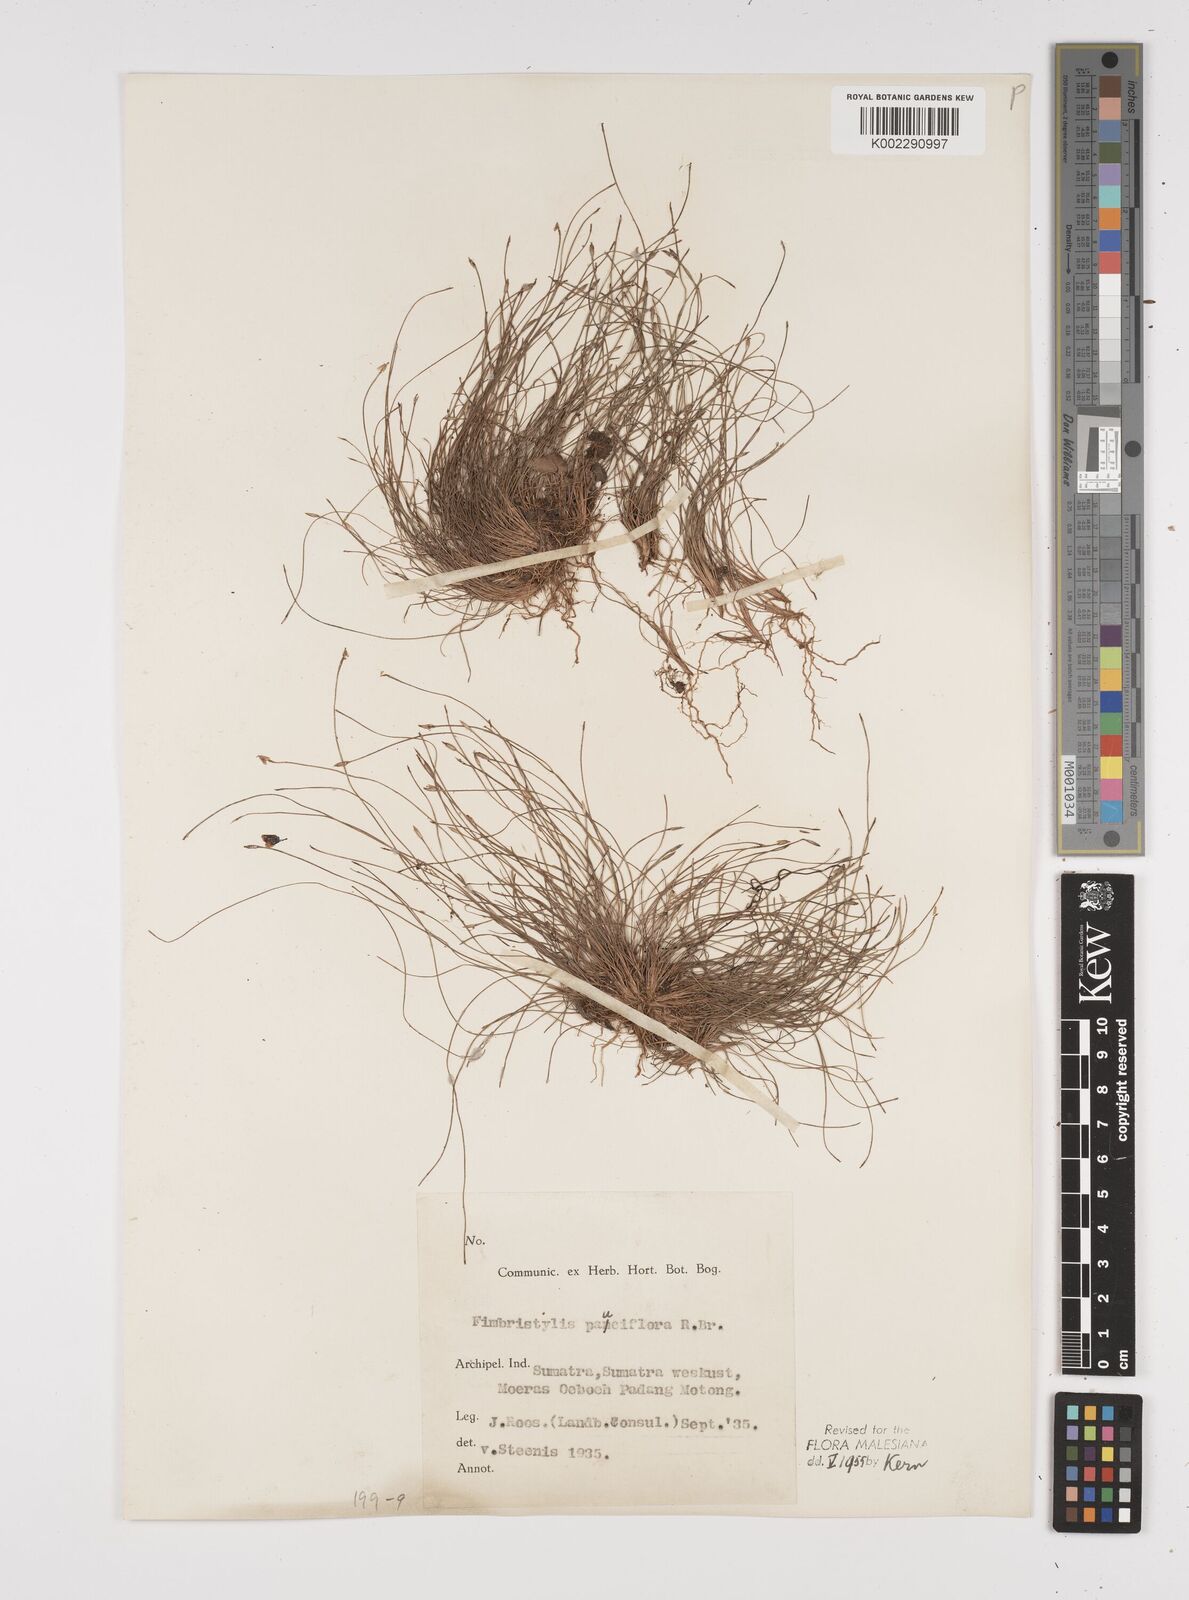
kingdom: Plantae
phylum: Tracheophyta
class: Liliopsida
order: Poales
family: Cyperaceae
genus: Fimbristylis
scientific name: Fimbristylis pauciflora
